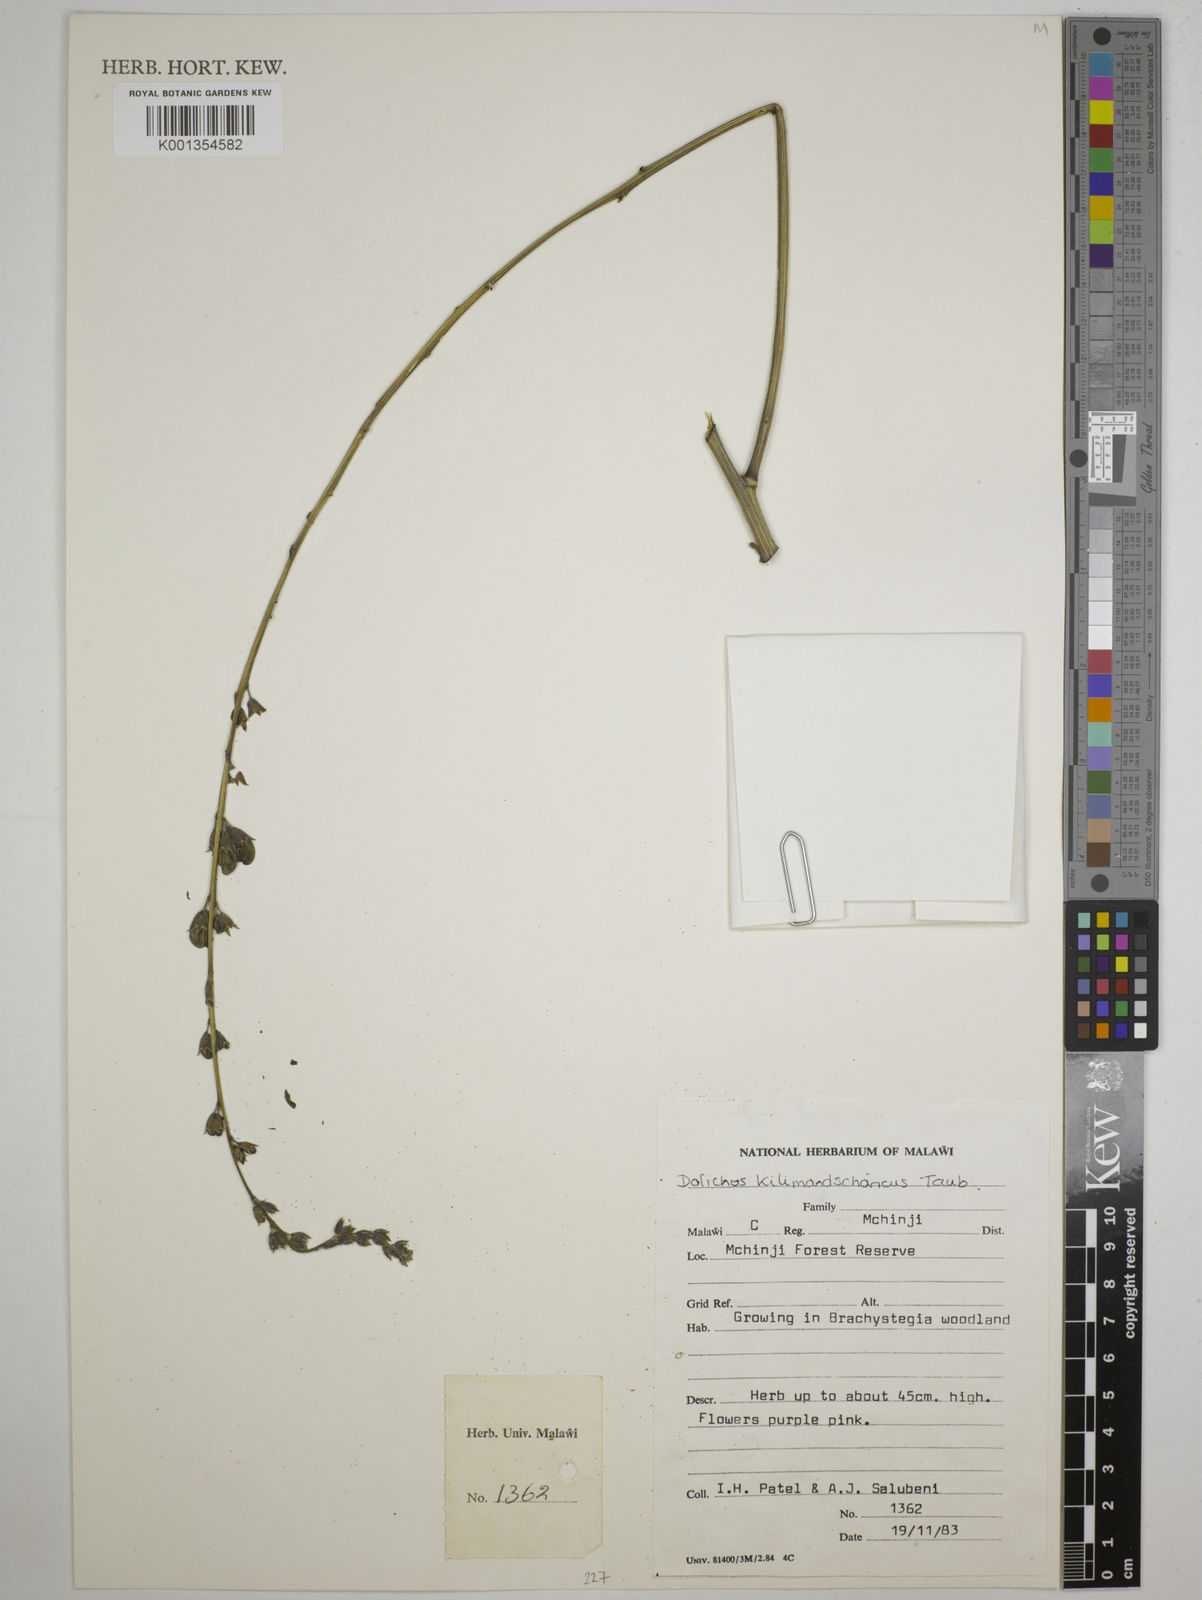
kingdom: Plantae
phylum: Tracheophyta
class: Magnoliopsida
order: Fabales
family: Fabaceae
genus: Dolichos
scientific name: Dolichos kilimandscharicus
